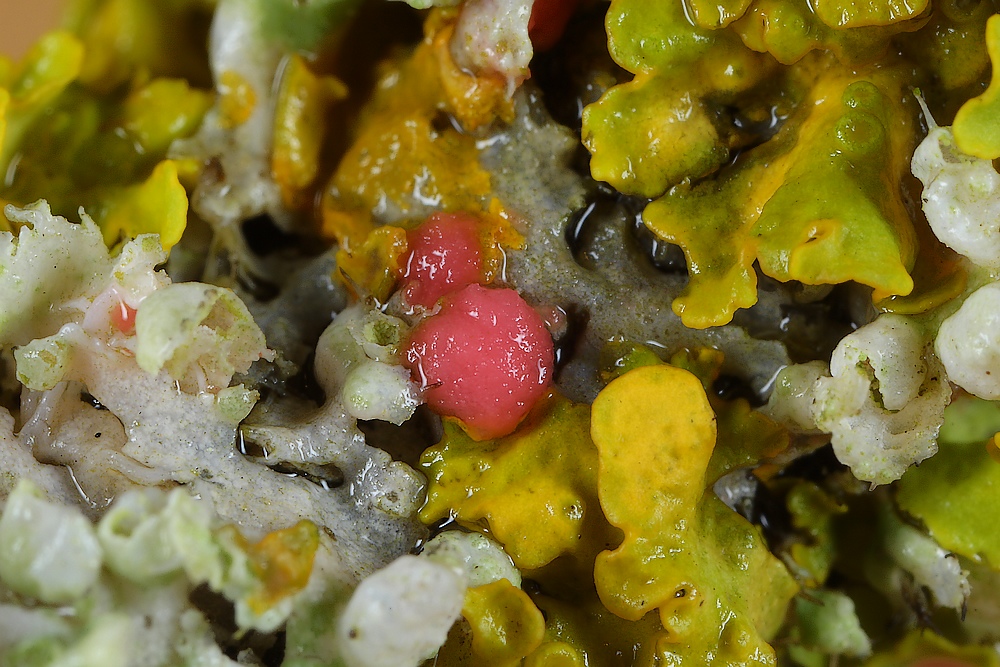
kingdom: Fungi
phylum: Ascomycota
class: Sordariomycetes
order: Hypocreales
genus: Illosporiopsis
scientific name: Illosporiopsis christiansenii
